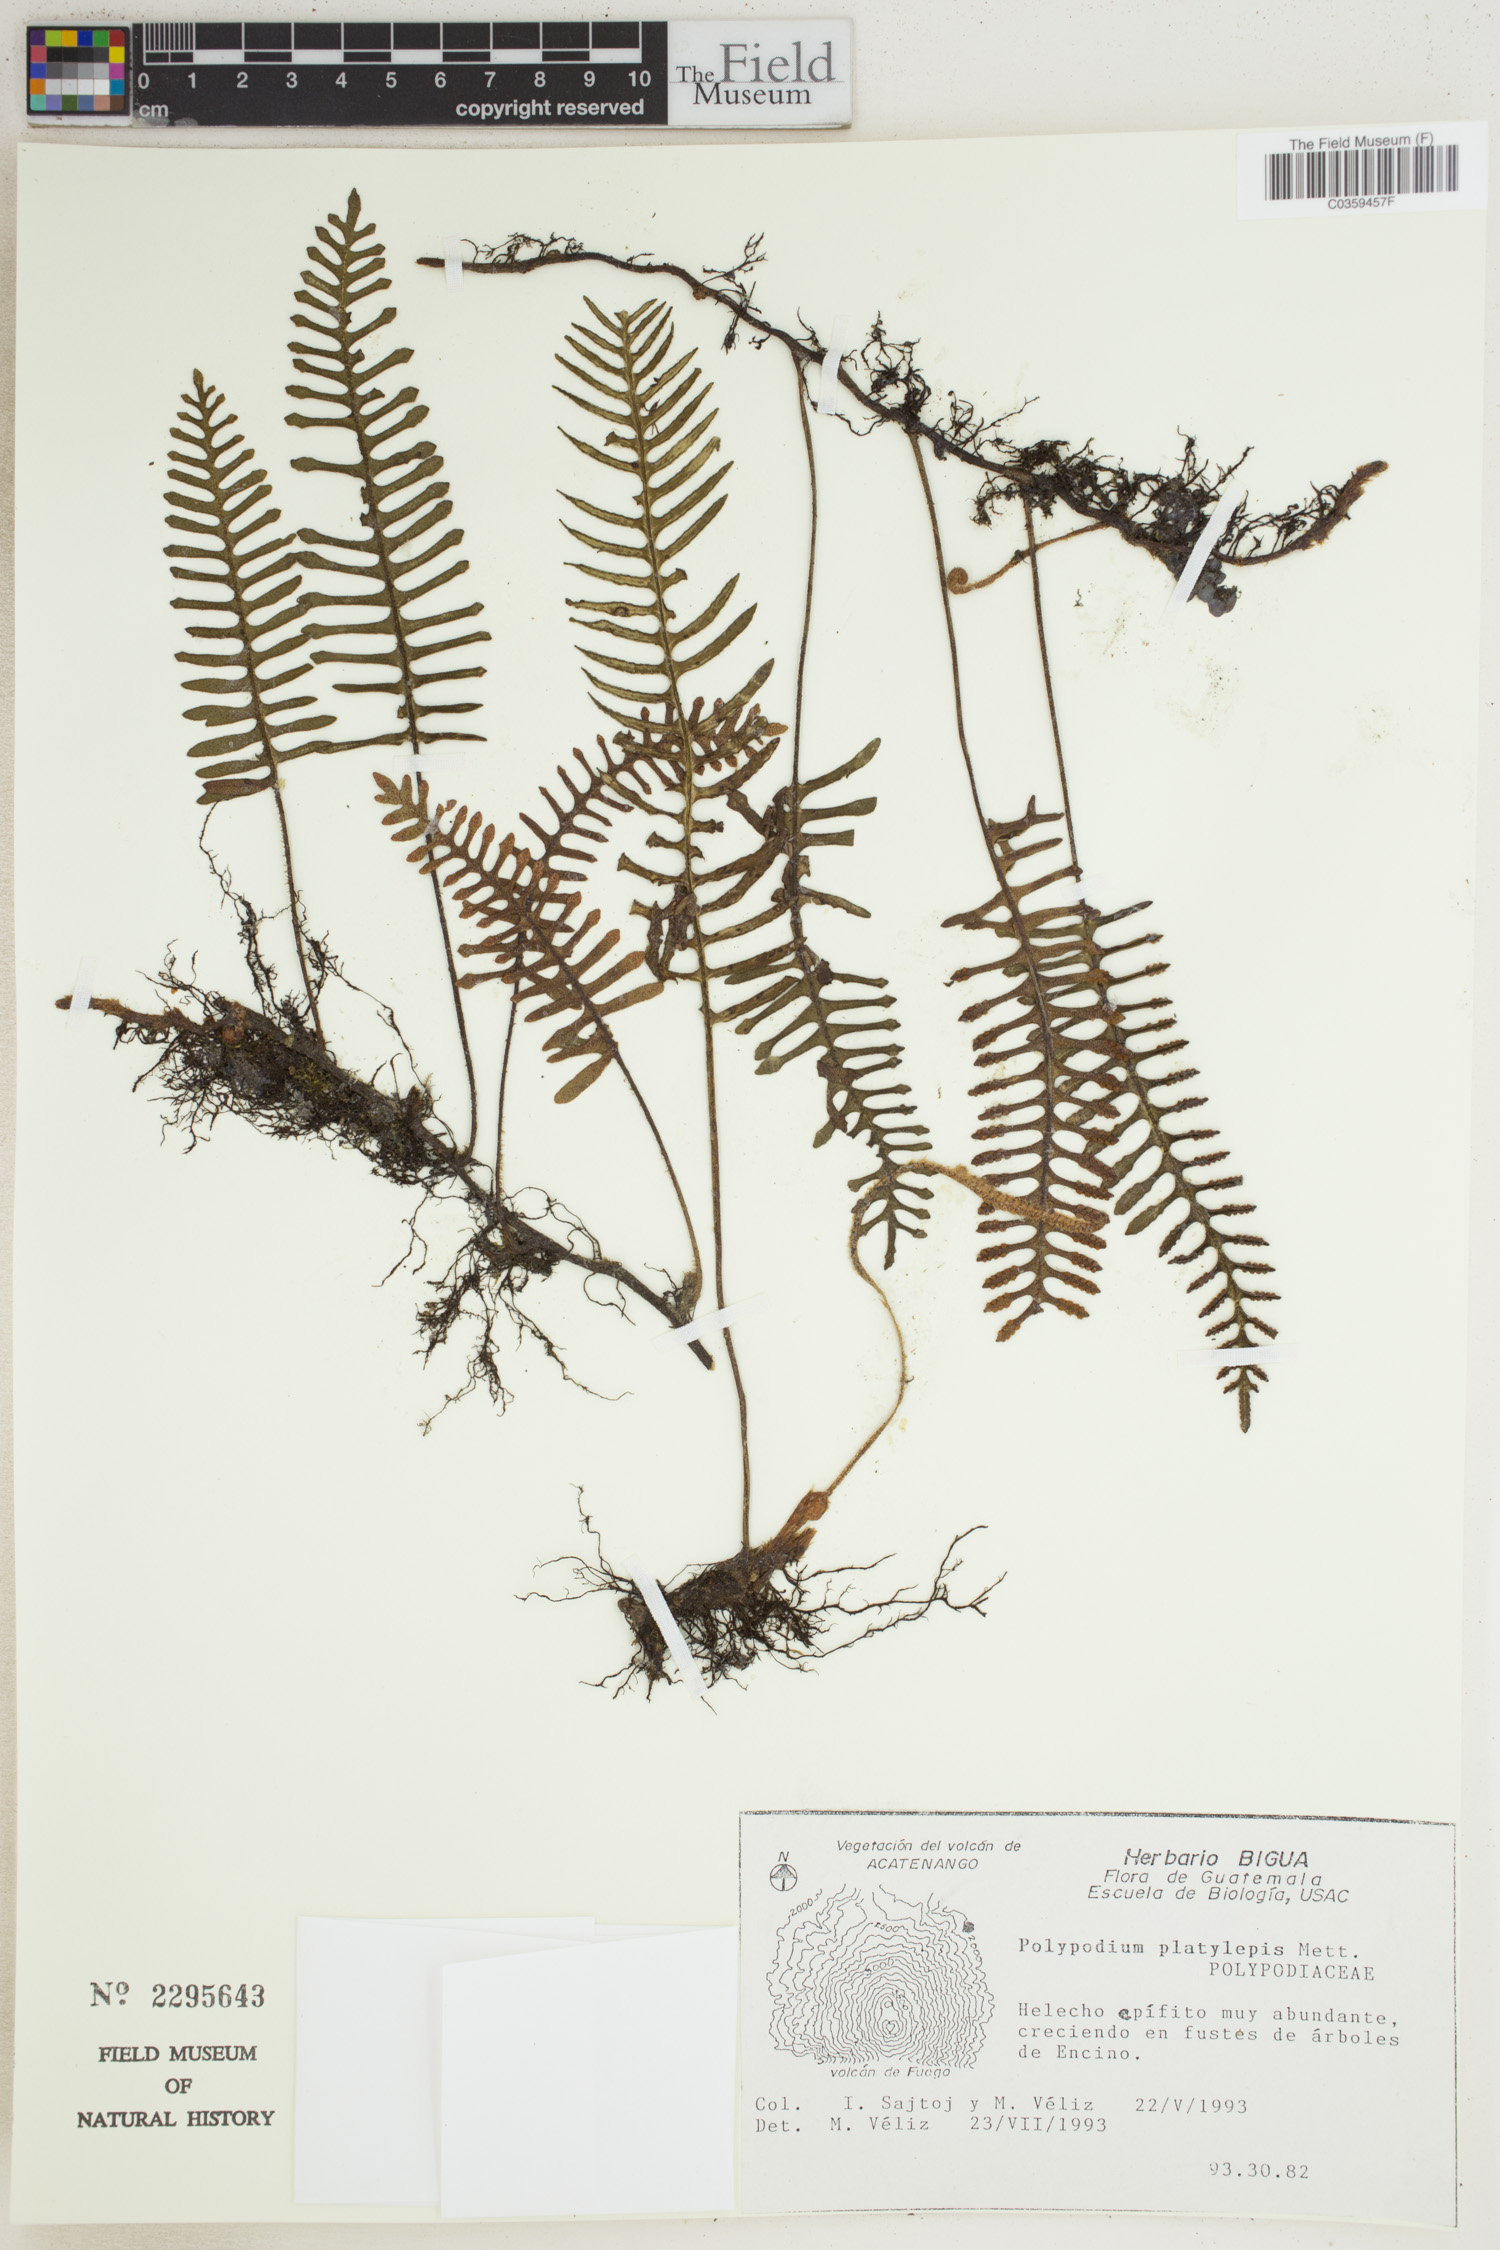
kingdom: Plantae
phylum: Tracheophyta
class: Polypodiopsida
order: Polypodiales
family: Polypodiaceae
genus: Pleopeltis
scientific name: Pleopeltis platylepis
